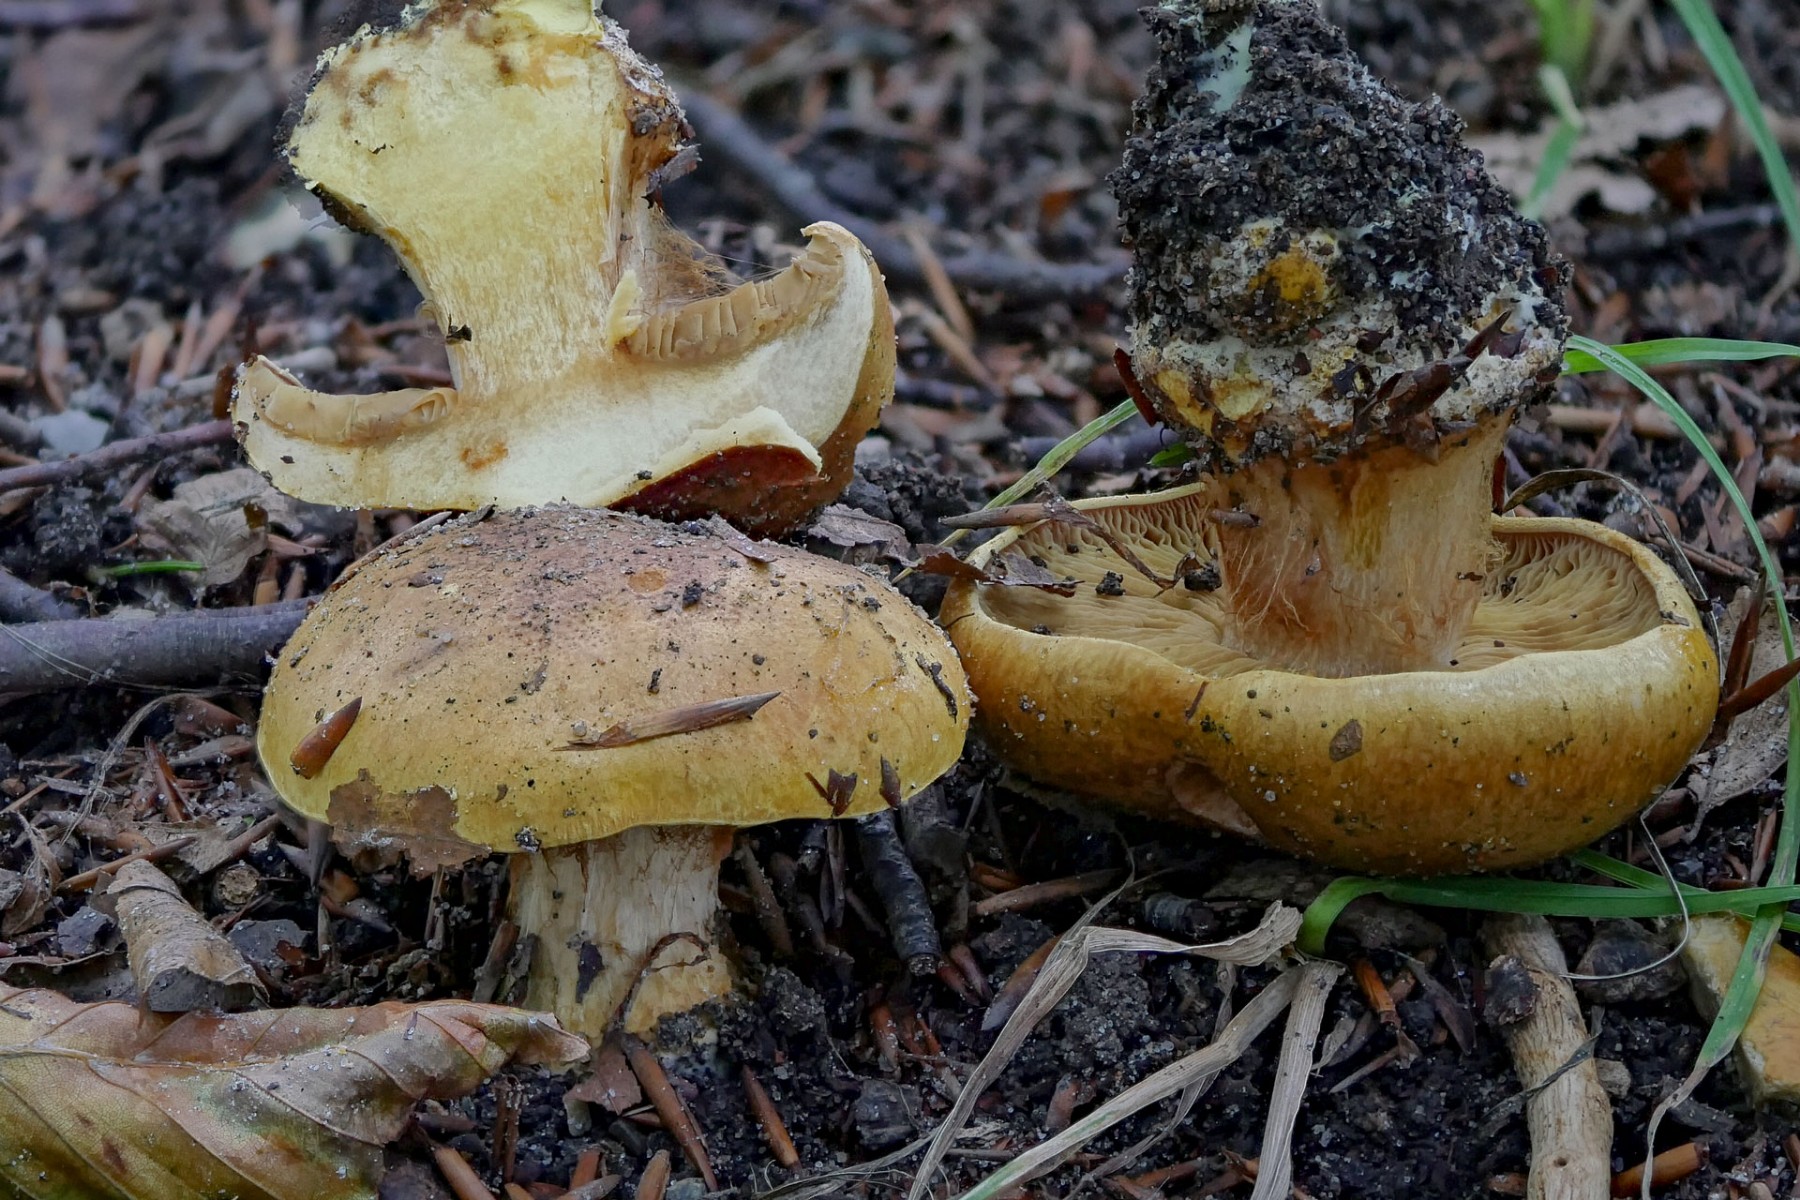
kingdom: Fungi
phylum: Basidiomycota
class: Agaricomycetes
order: Agaricales
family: Cortinariaceae
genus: Calonarius
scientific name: Calonarius alcalinophilus
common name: gyldenbrun slørhat
